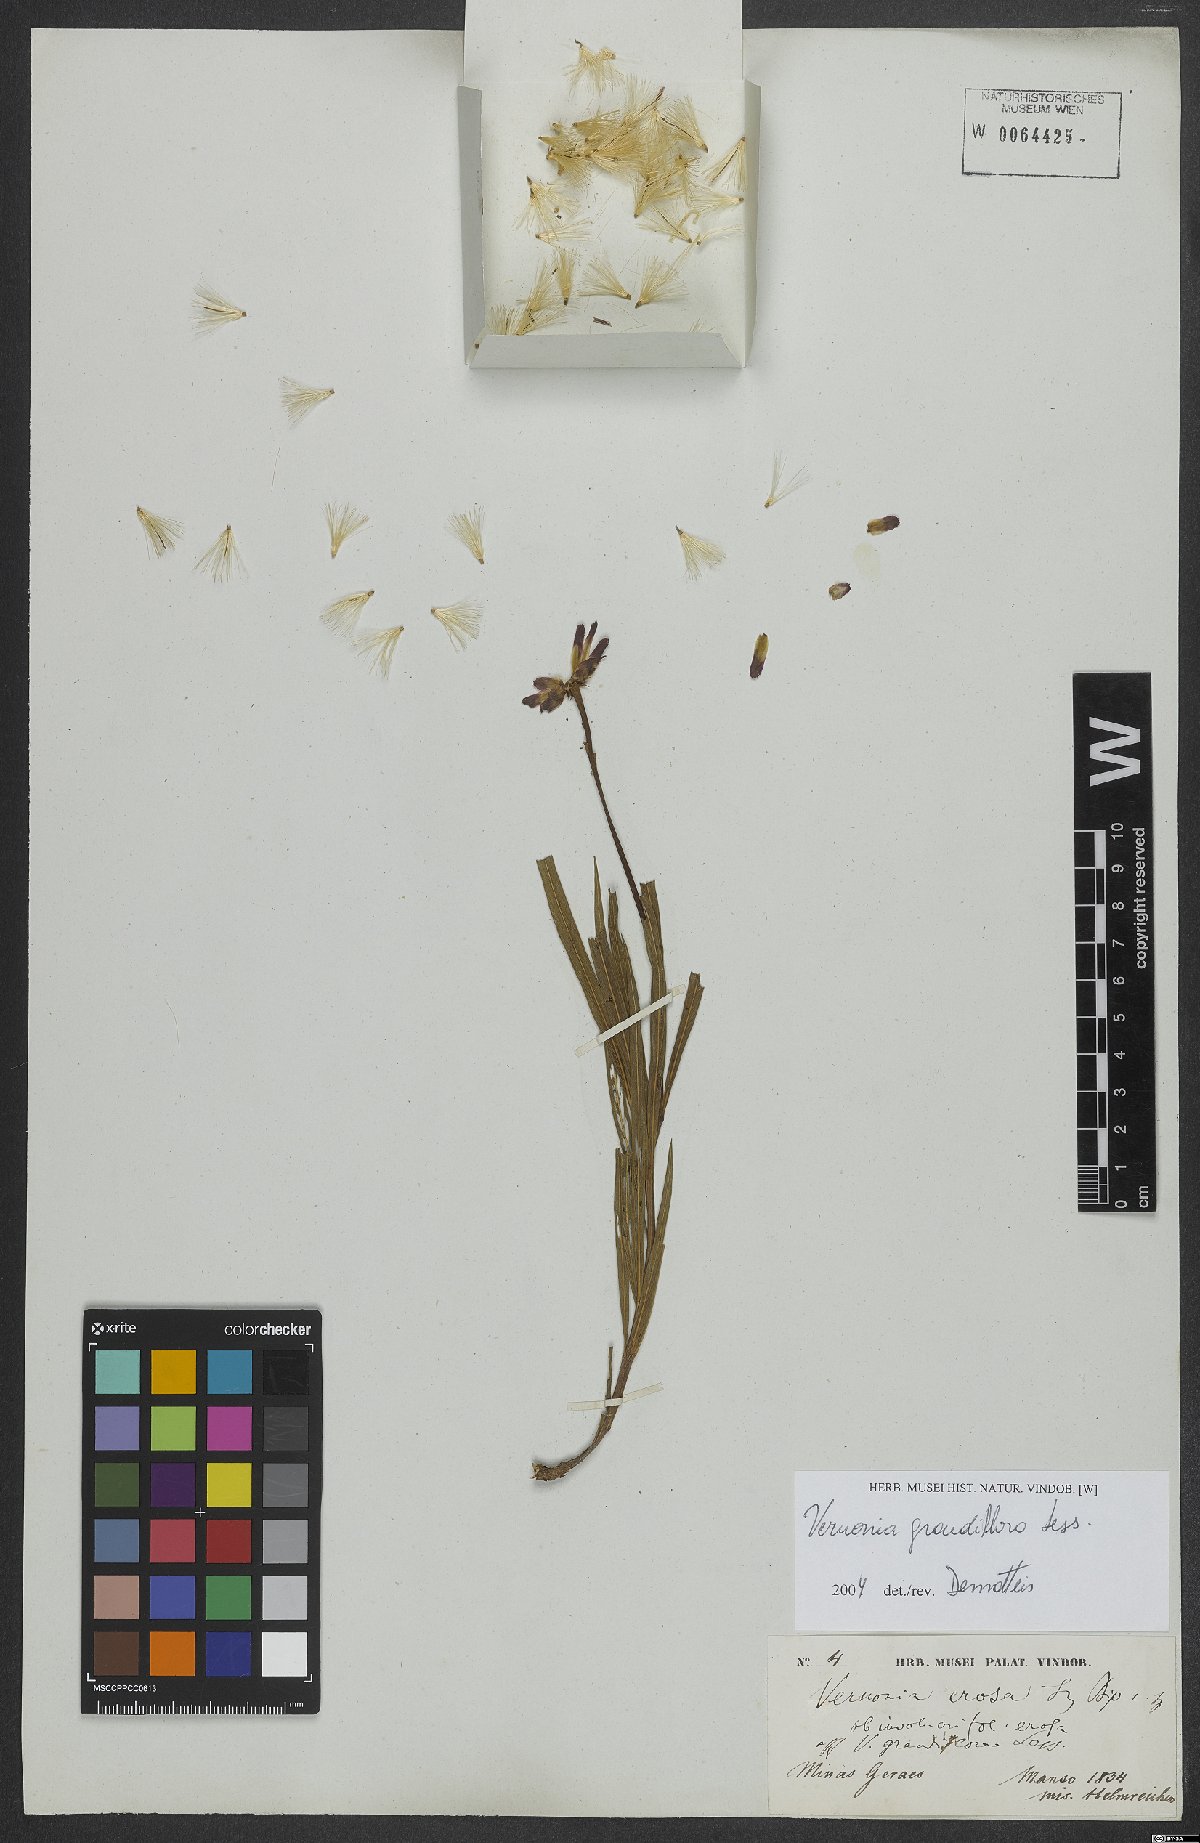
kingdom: Plantae
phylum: Tracheophyta
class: Magnoliopsida
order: Asterales
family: Asteraceae
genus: Lessingianthus
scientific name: Lessingianthus grandiflorus
